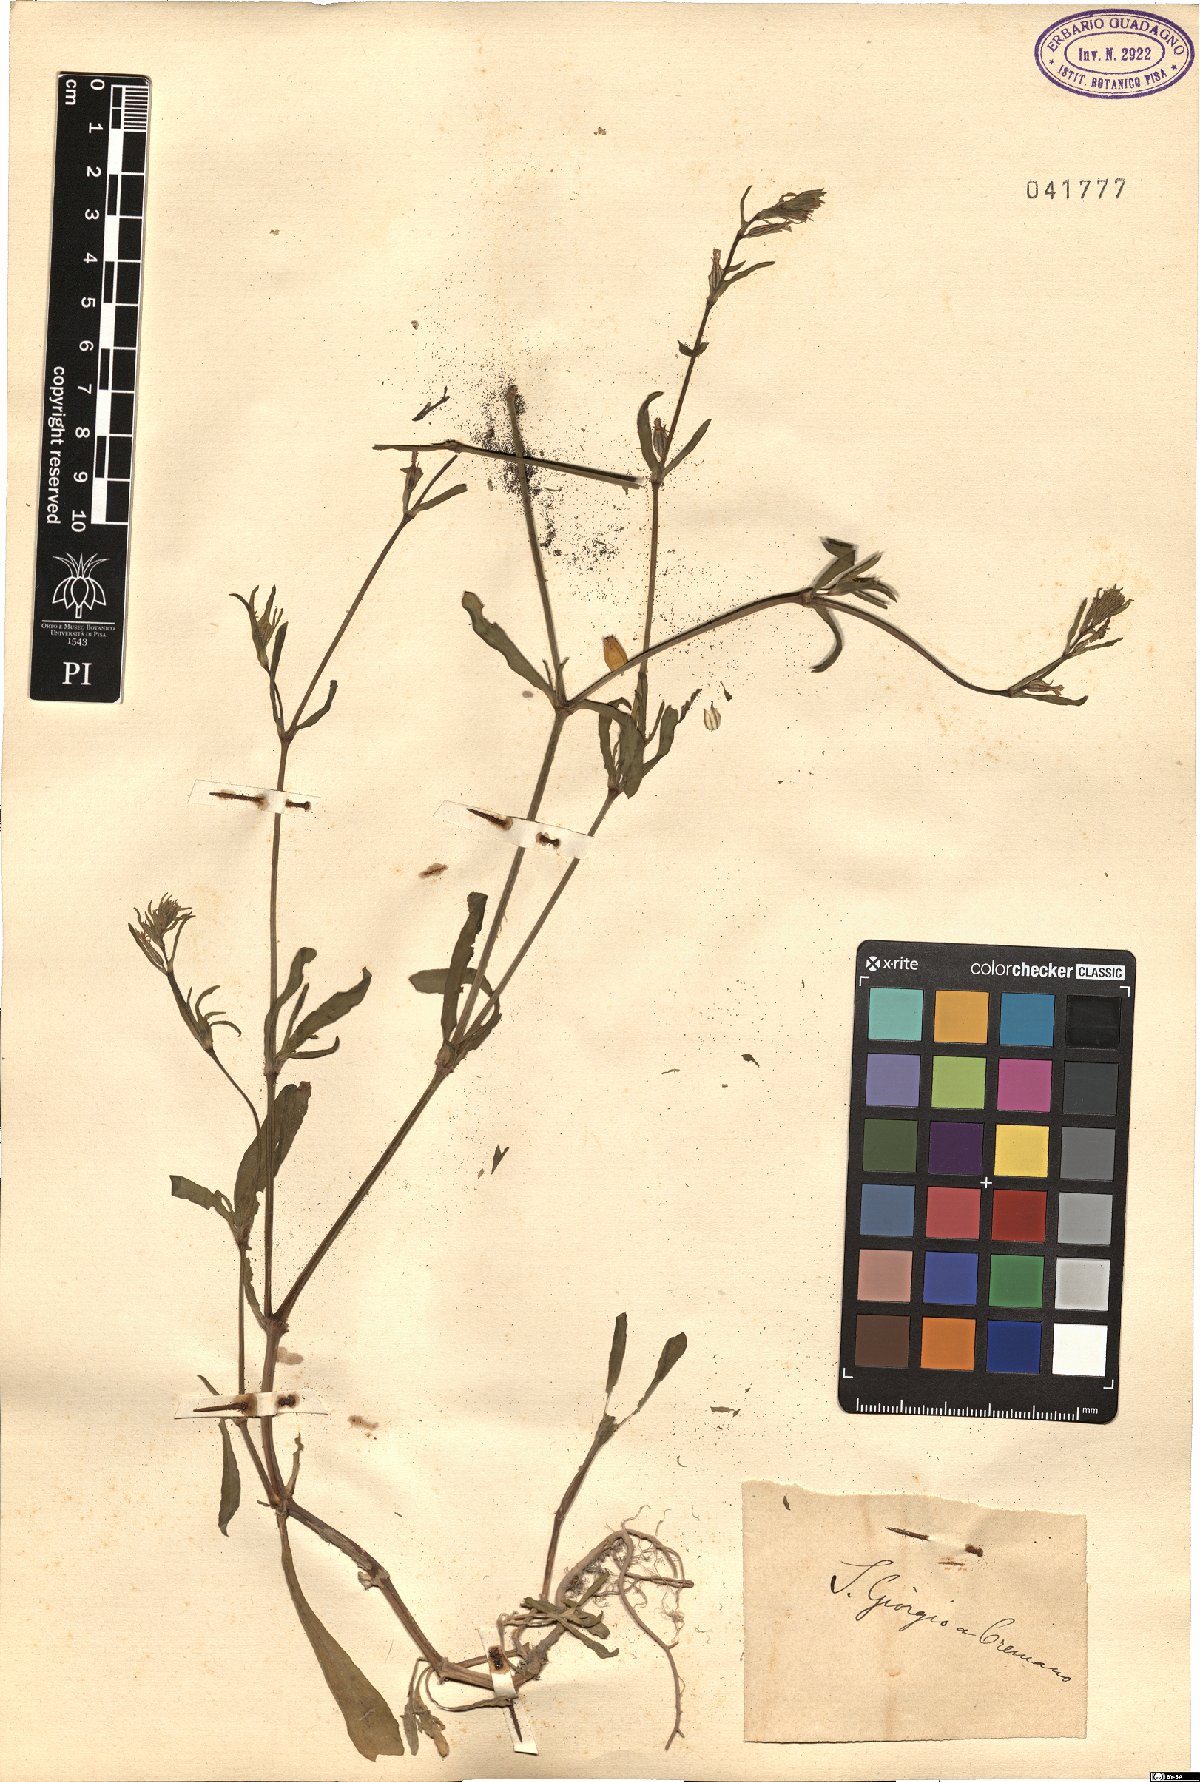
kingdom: Plantae
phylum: Tracheophyta
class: Magnoliopsida
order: Caryophyllales
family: Caryophyllaceae
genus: Silene
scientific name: Silene
